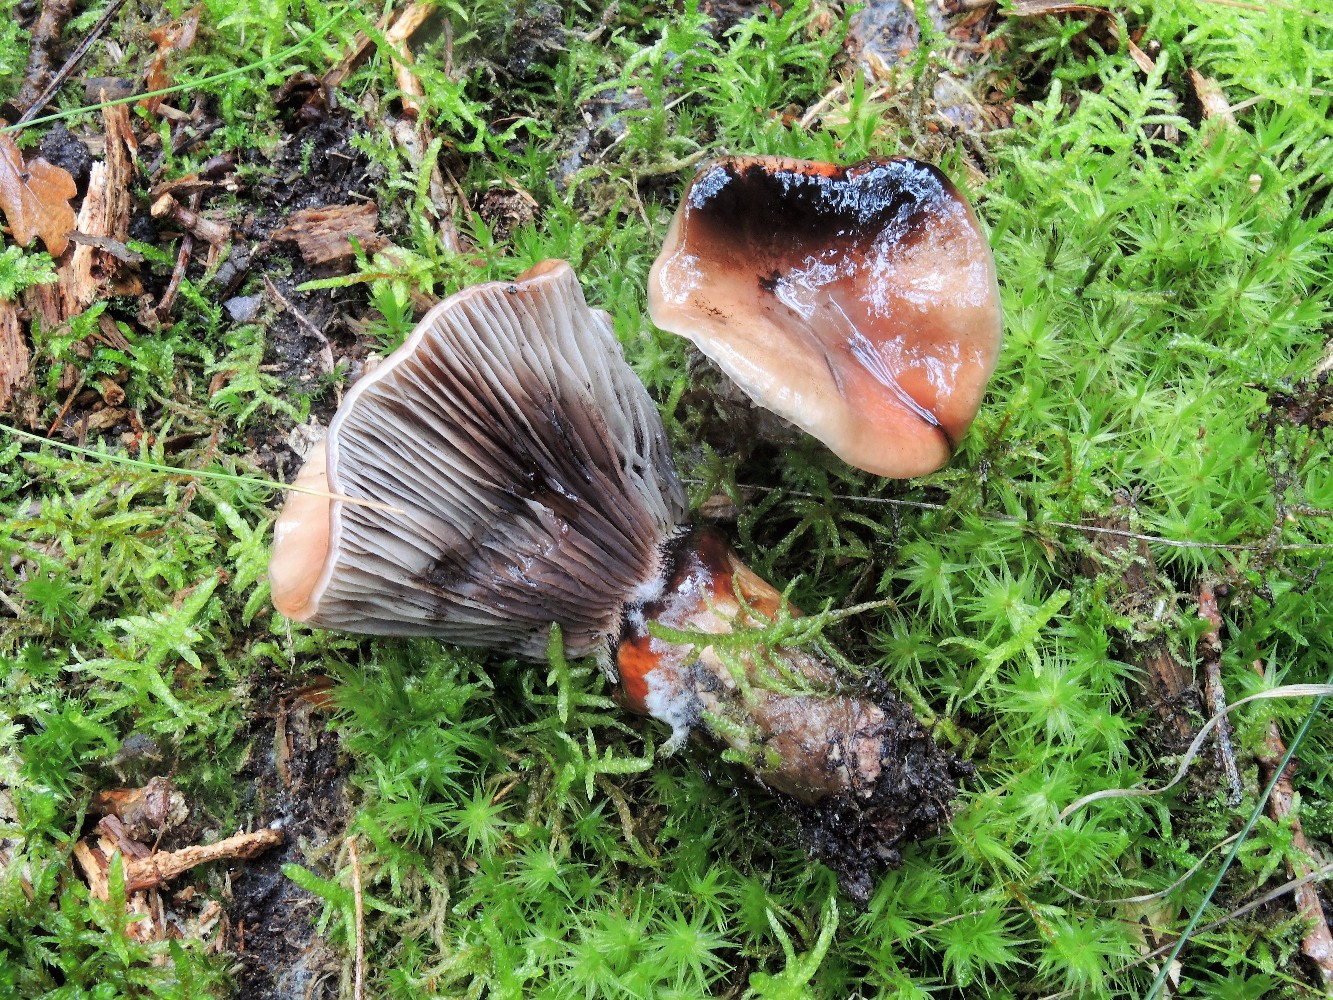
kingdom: Fungi
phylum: Basidiomycota
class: Agaricomycetes
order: Boletales
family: Gomphidiaceae
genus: Gomphidius
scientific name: Gomphidius roseus
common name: rosenrød slimslør
